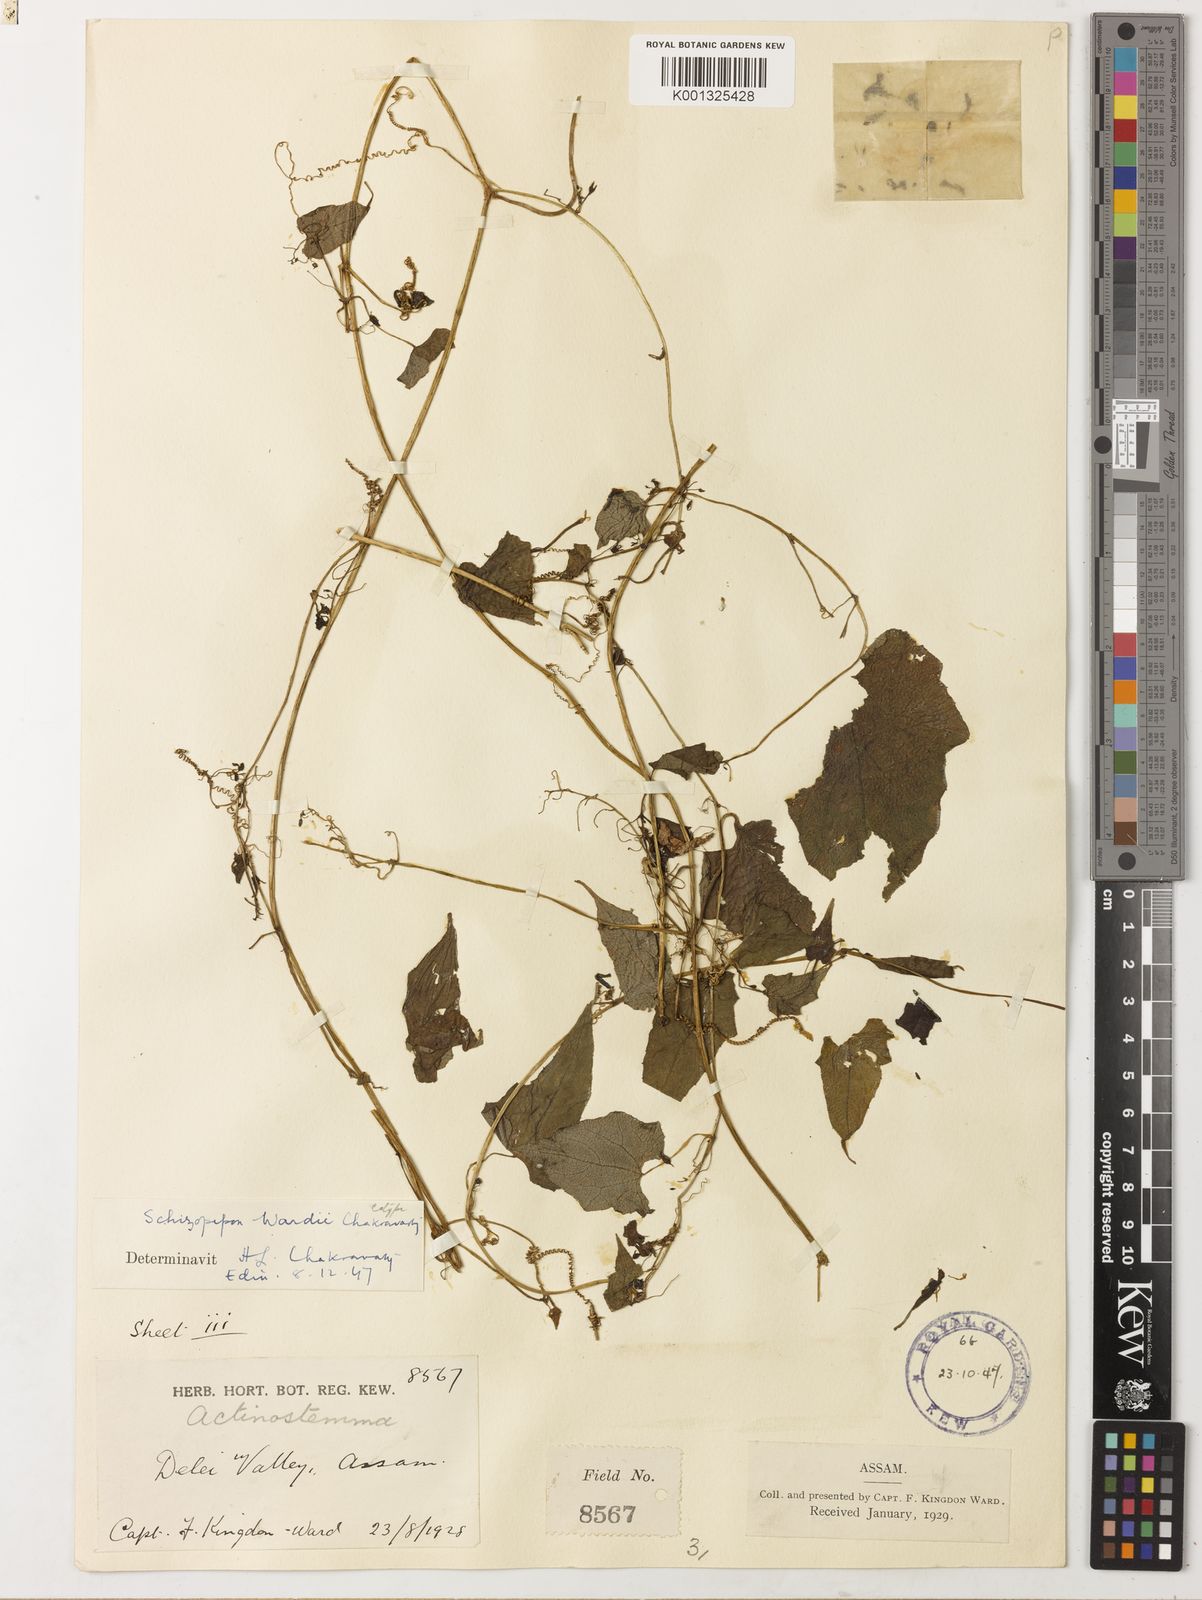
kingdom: Plantae
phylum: Tracheophyta
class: Magnoliopsida
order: Cucurbitales
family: Cucurbitaceae
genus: Schizopepon
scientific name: Schizopepon bicirrhosa
